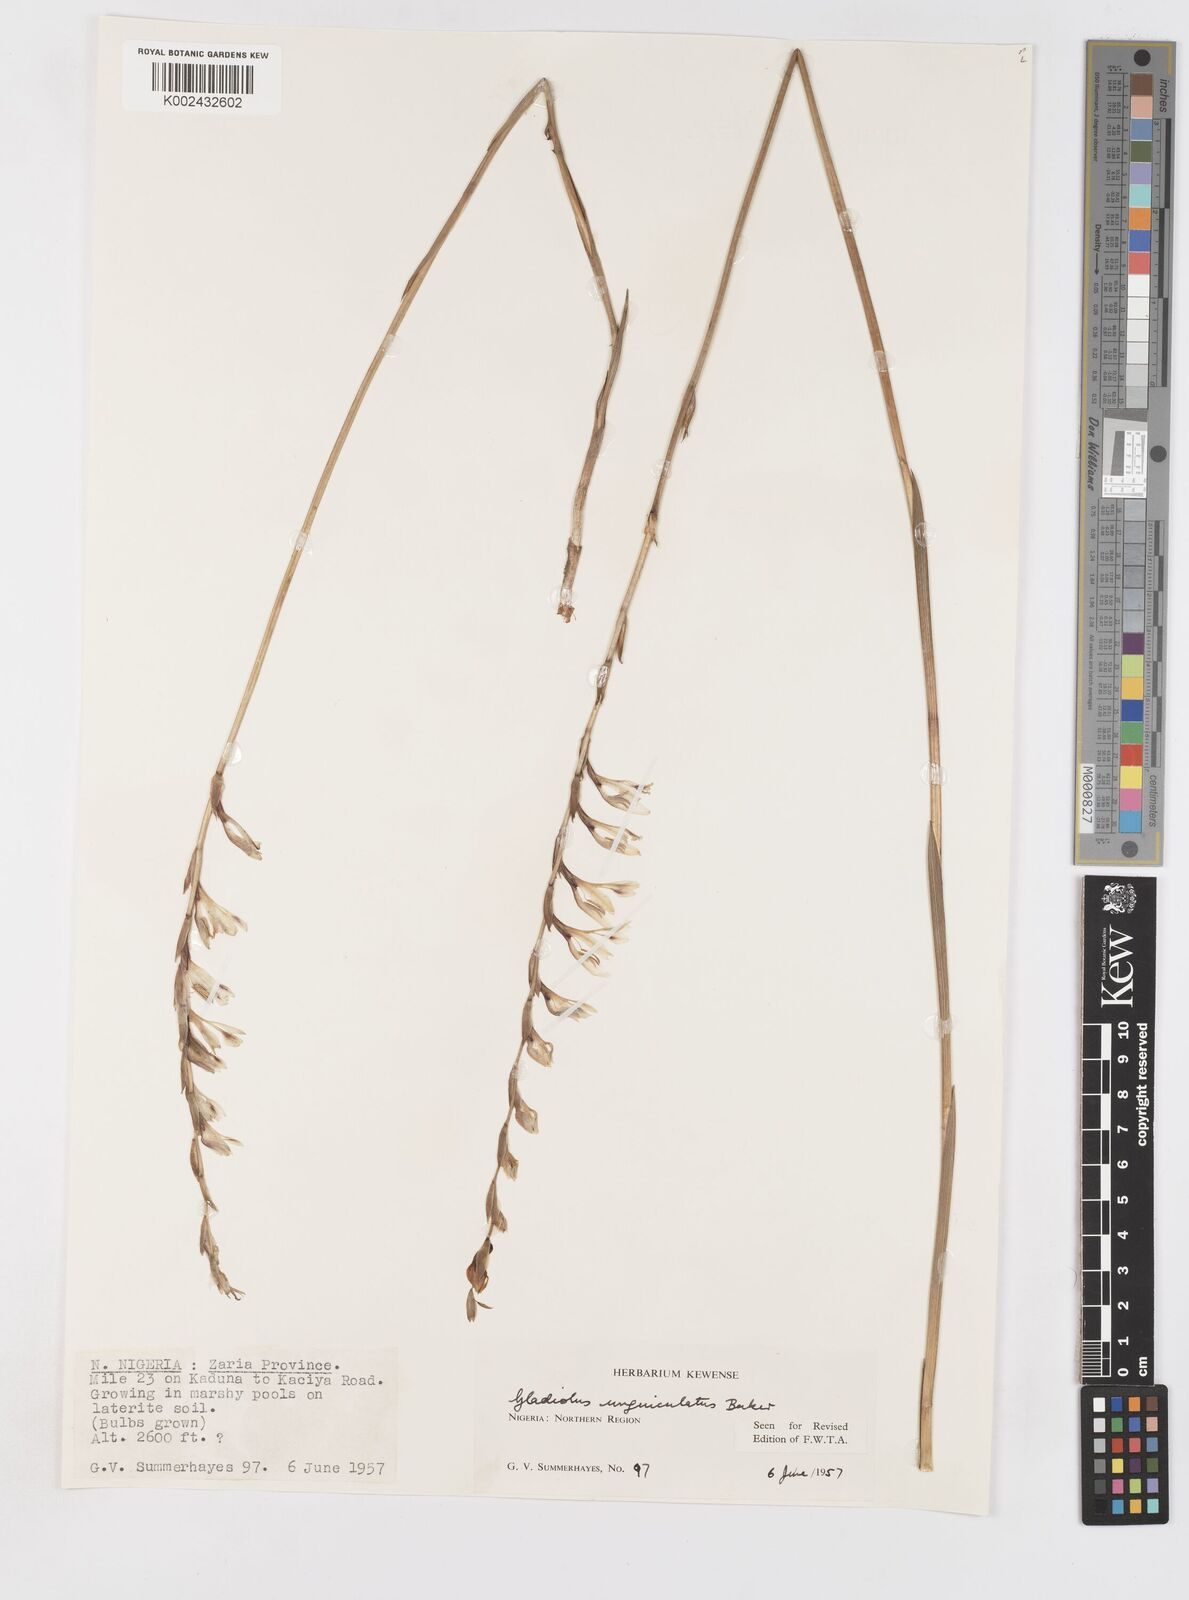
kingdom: Plantae
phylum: Tracheophyta
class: Liliopsida
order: Asparagales
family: Iridaceae
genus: Gladiolus
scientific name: Gladiolus unguiculatus
